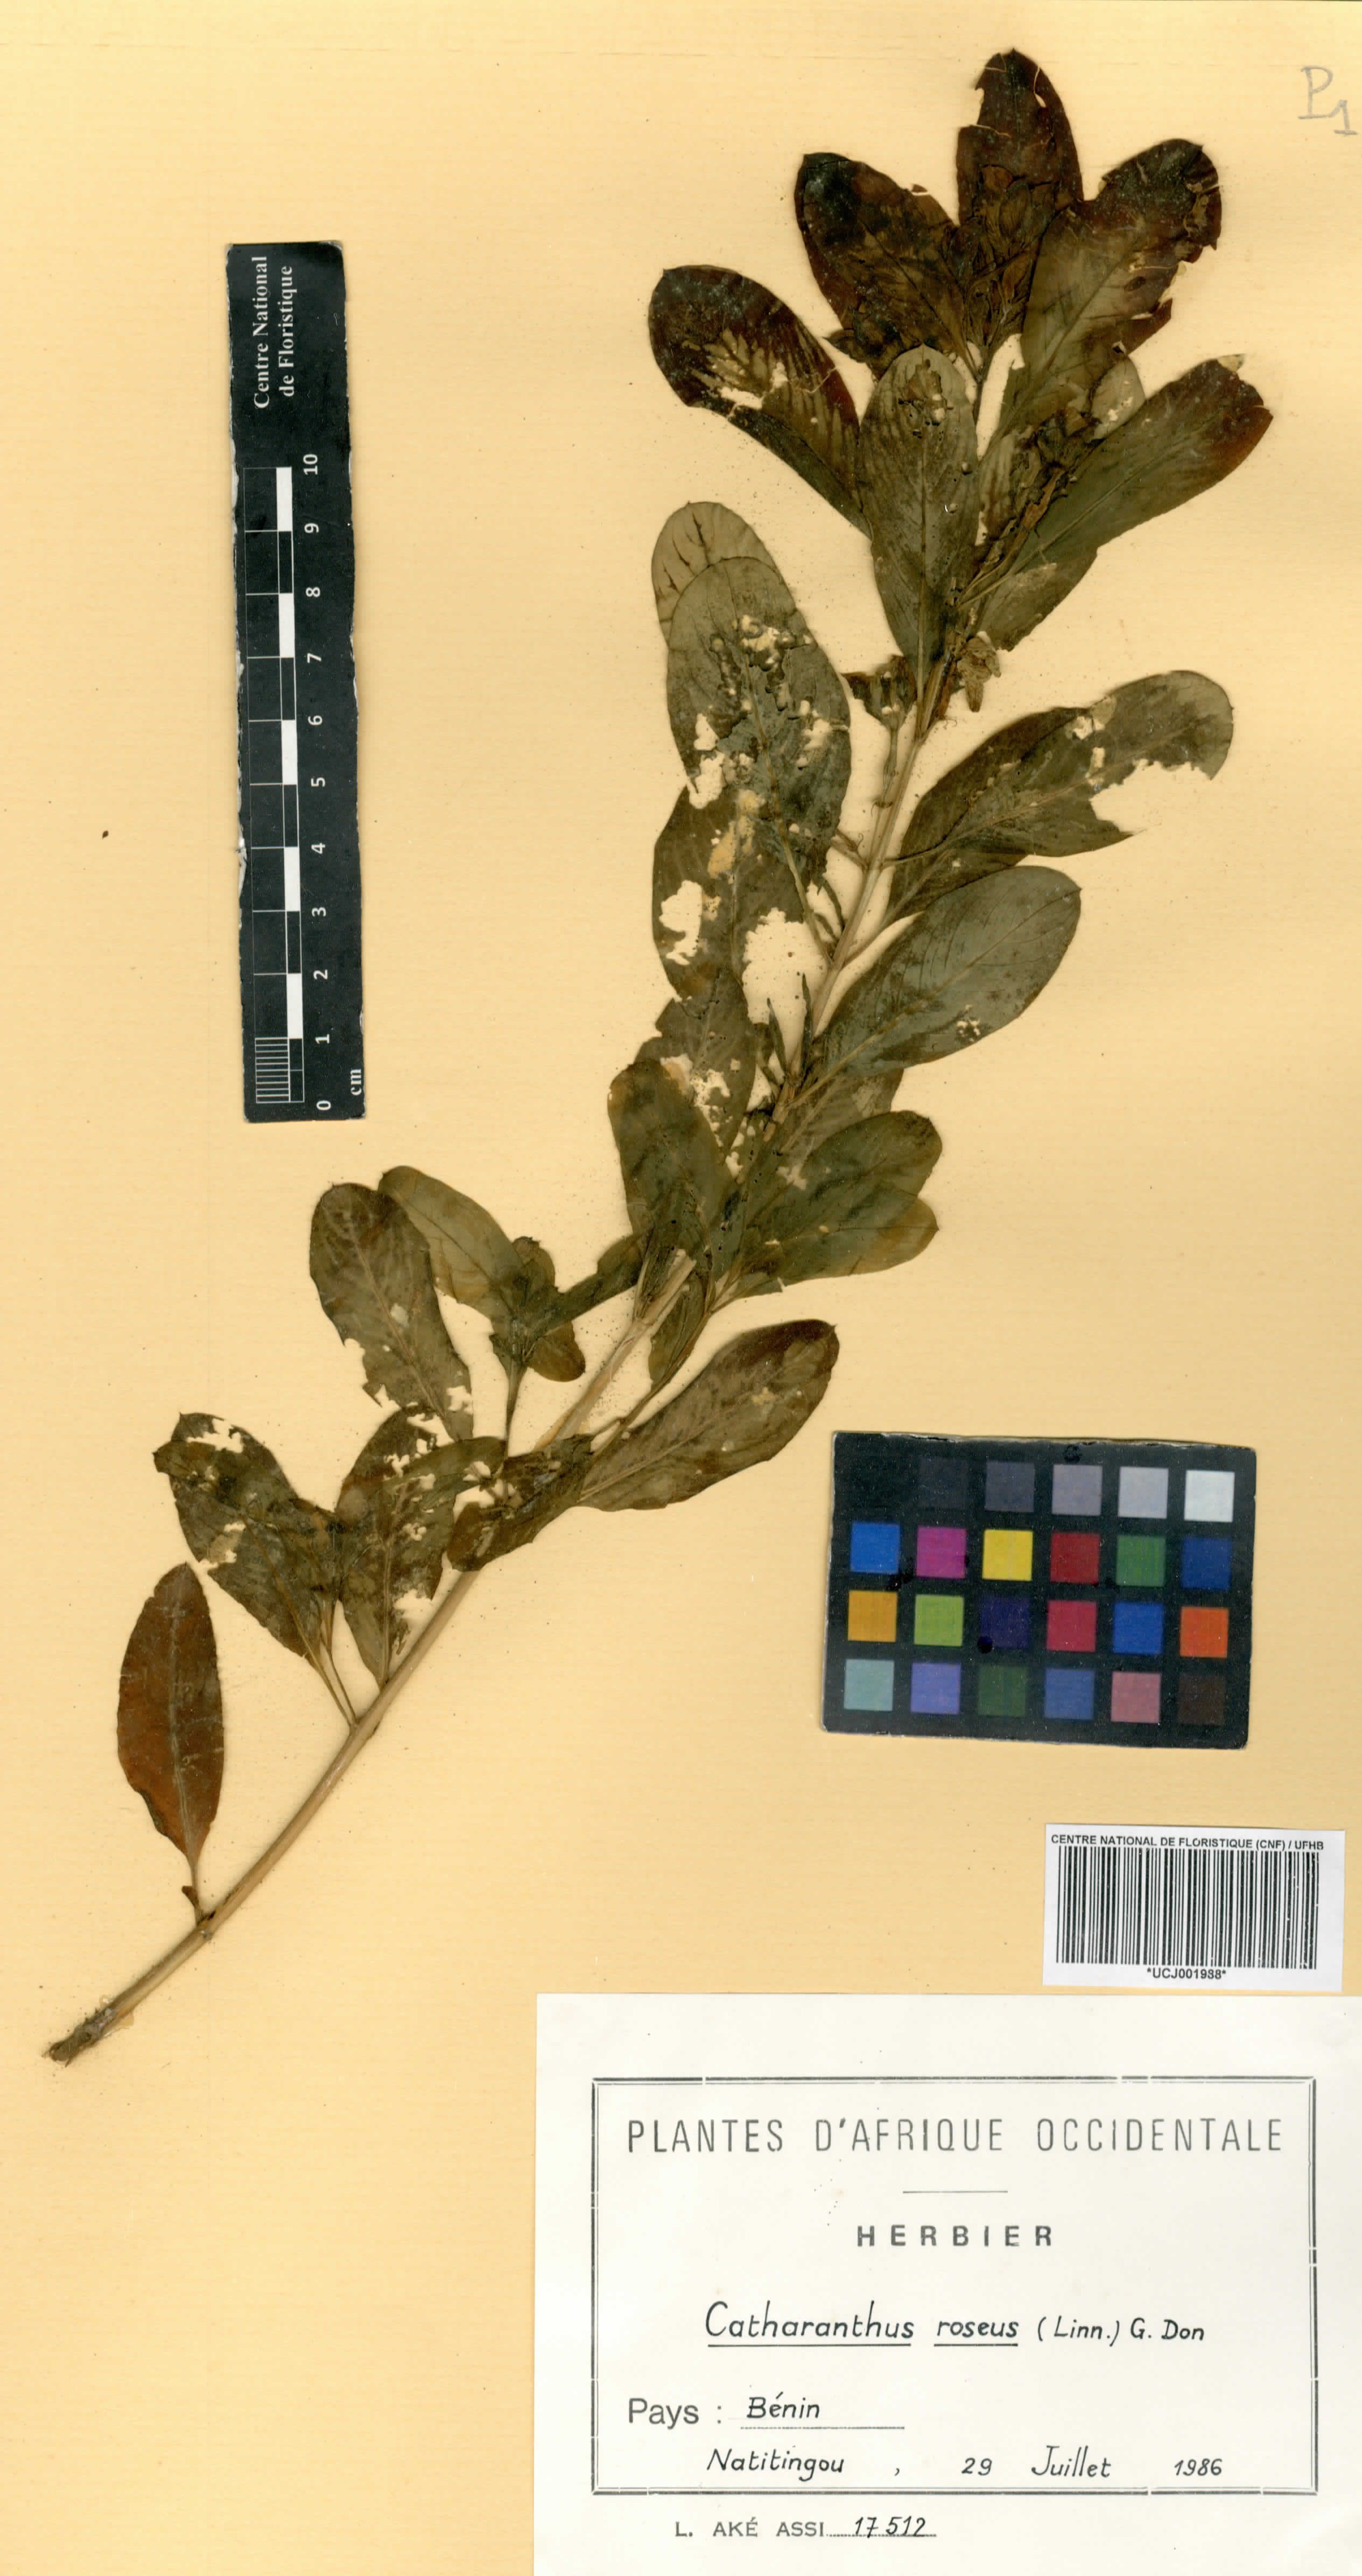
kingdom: Plantae
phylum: Tracheophyta
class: Magnoliopsida
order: Gentianales
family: Apocynaceae
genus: Catharanthus
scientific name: Catharanthus roseus
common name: Madagascar periwinkle
